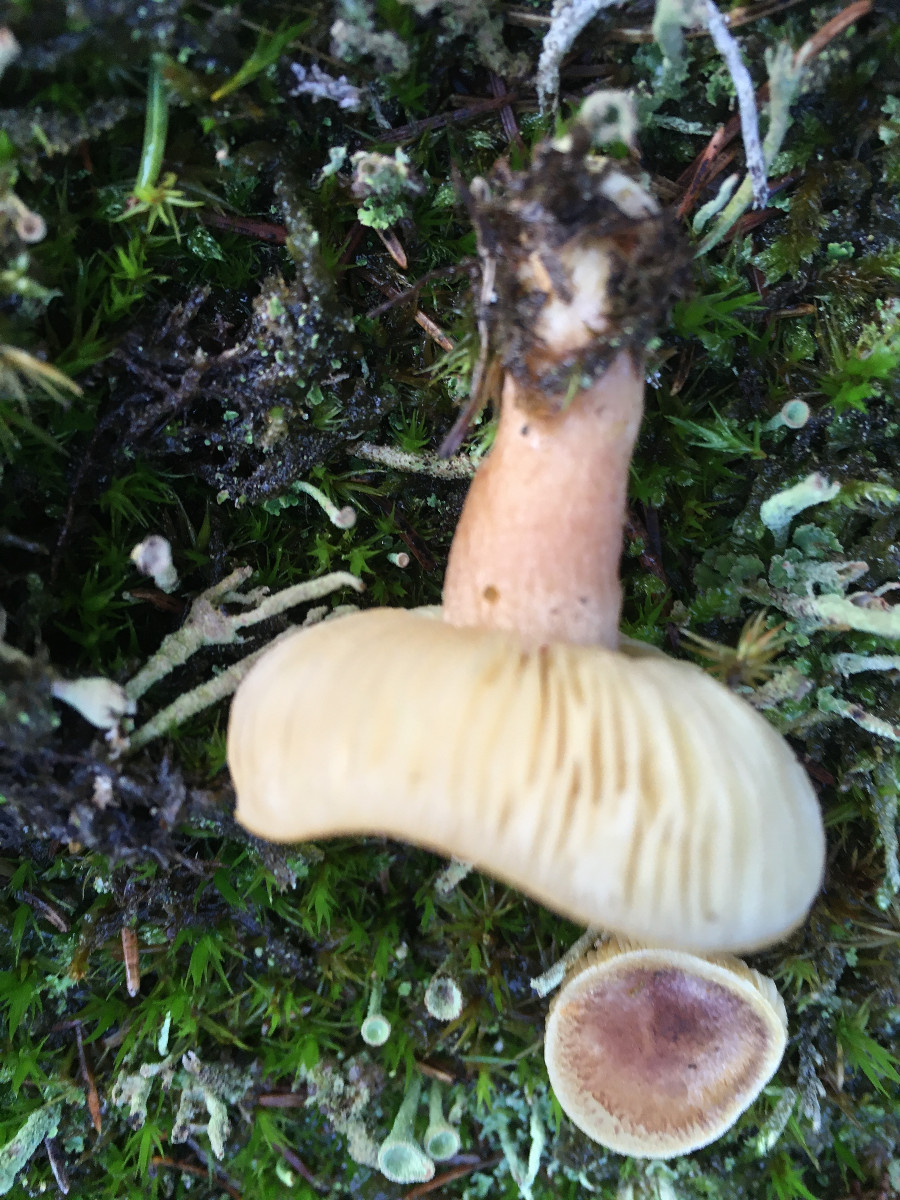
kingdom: Fungi
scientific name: Fungi
